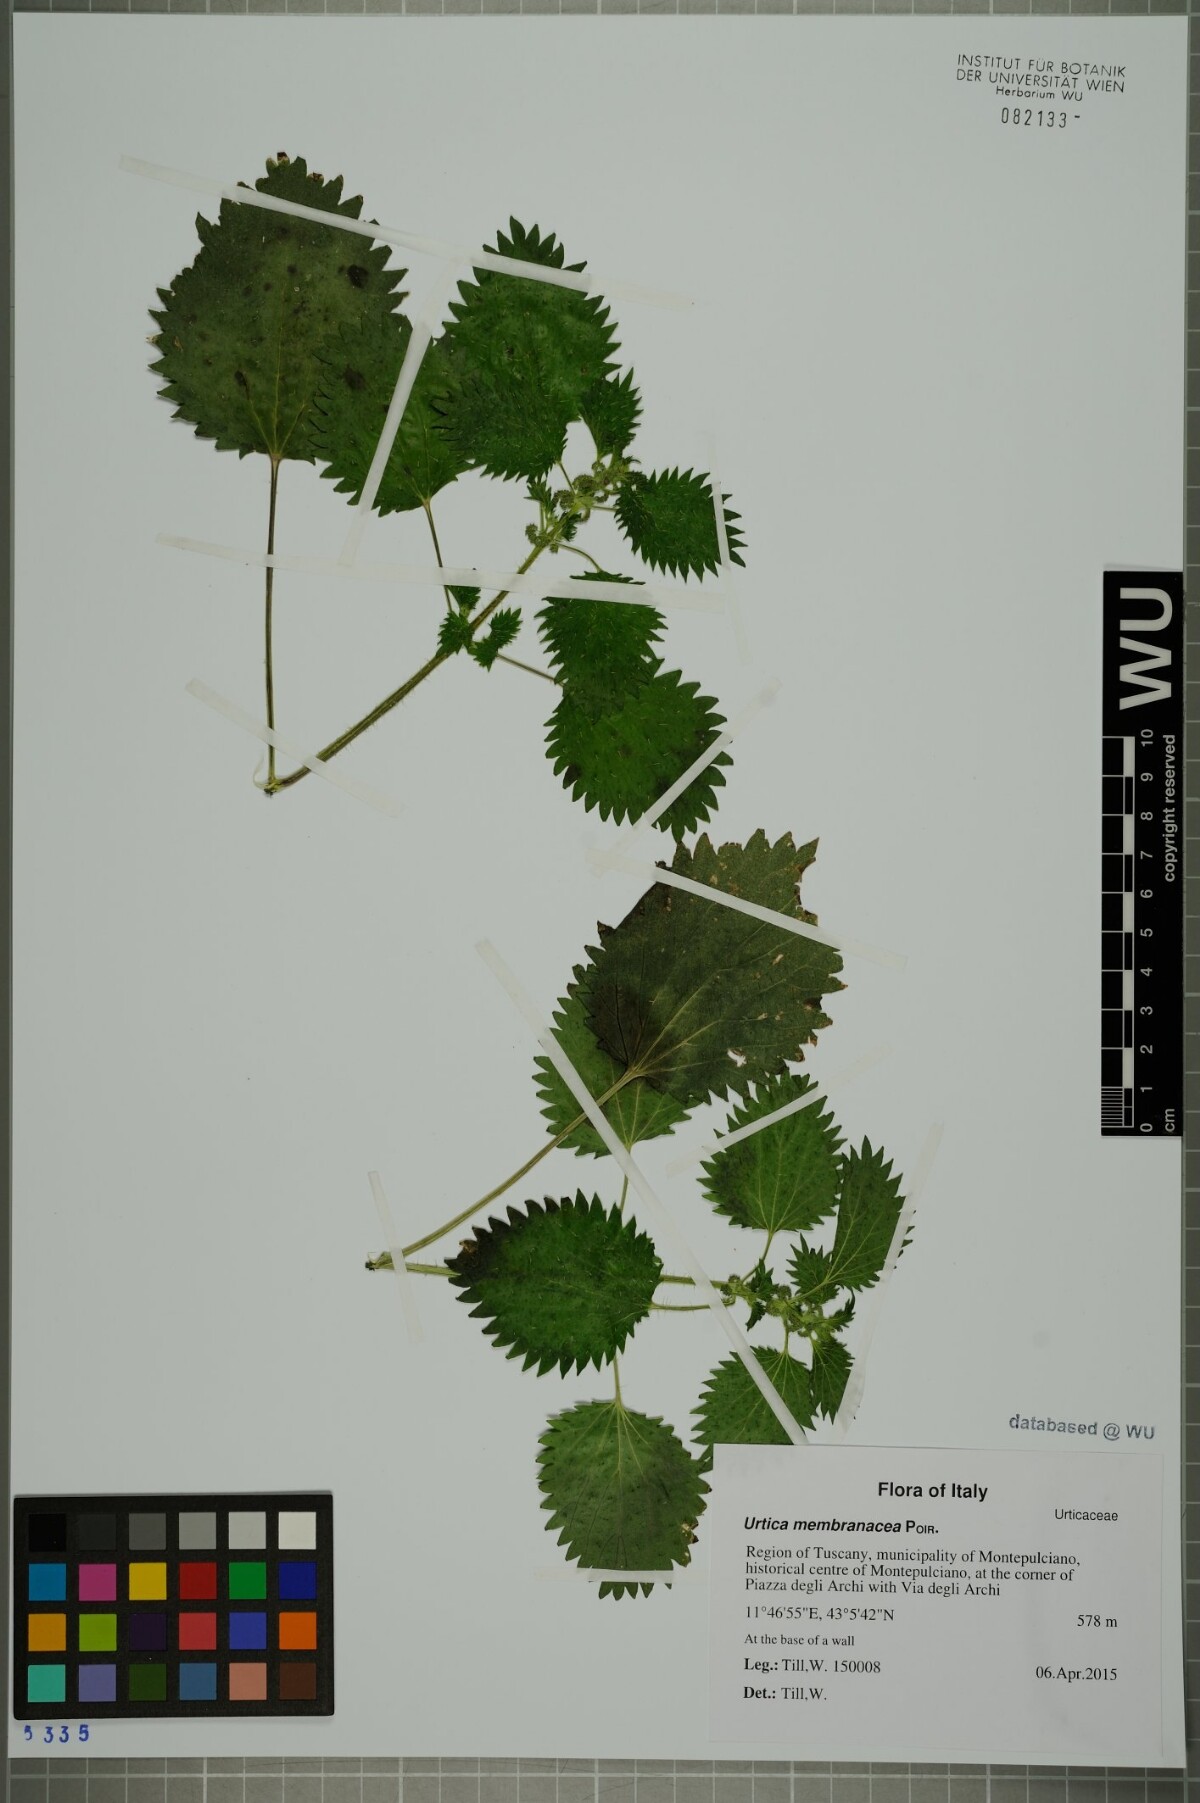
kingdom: Plantae
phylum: Tracheophyta
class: Magnoliopsida
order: Rosales
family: Urticaceae
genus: Urtica
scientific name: Urtica membranacea
